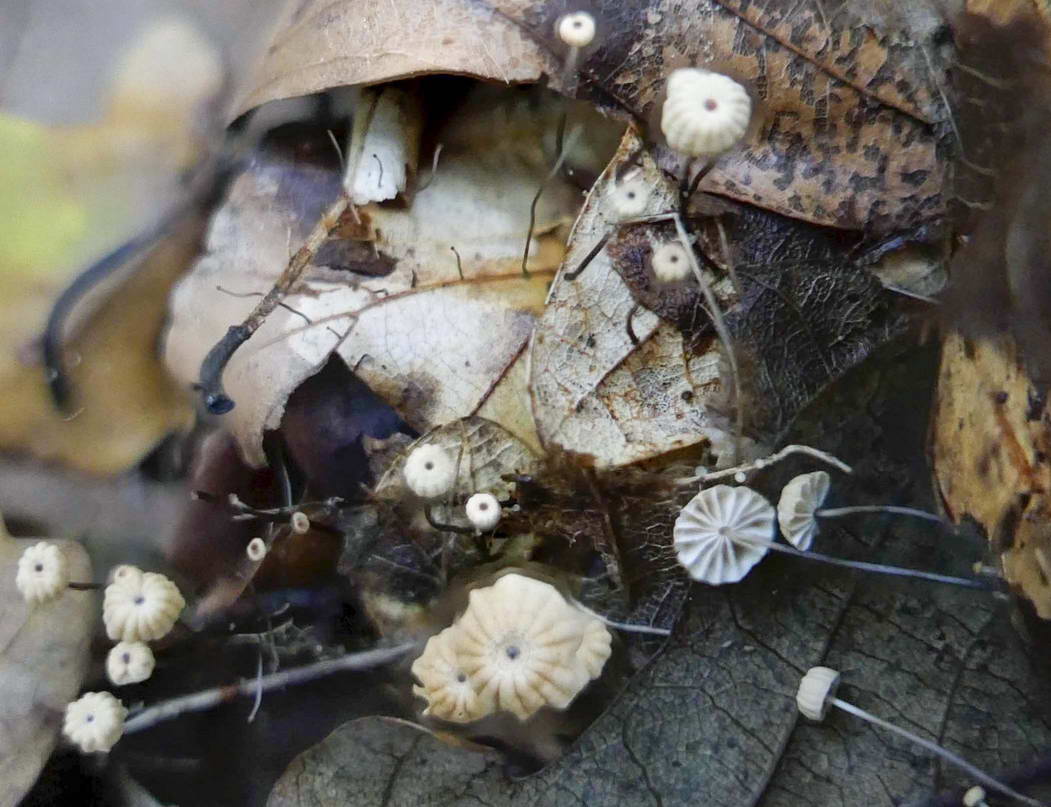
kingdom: Fungi
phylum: Basidiomycota
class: Agaricomycetes
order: Agaricales
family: Marasmiaceae
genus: Marasmius
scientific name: Marasmius bulliardii
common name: furet bruskhat
